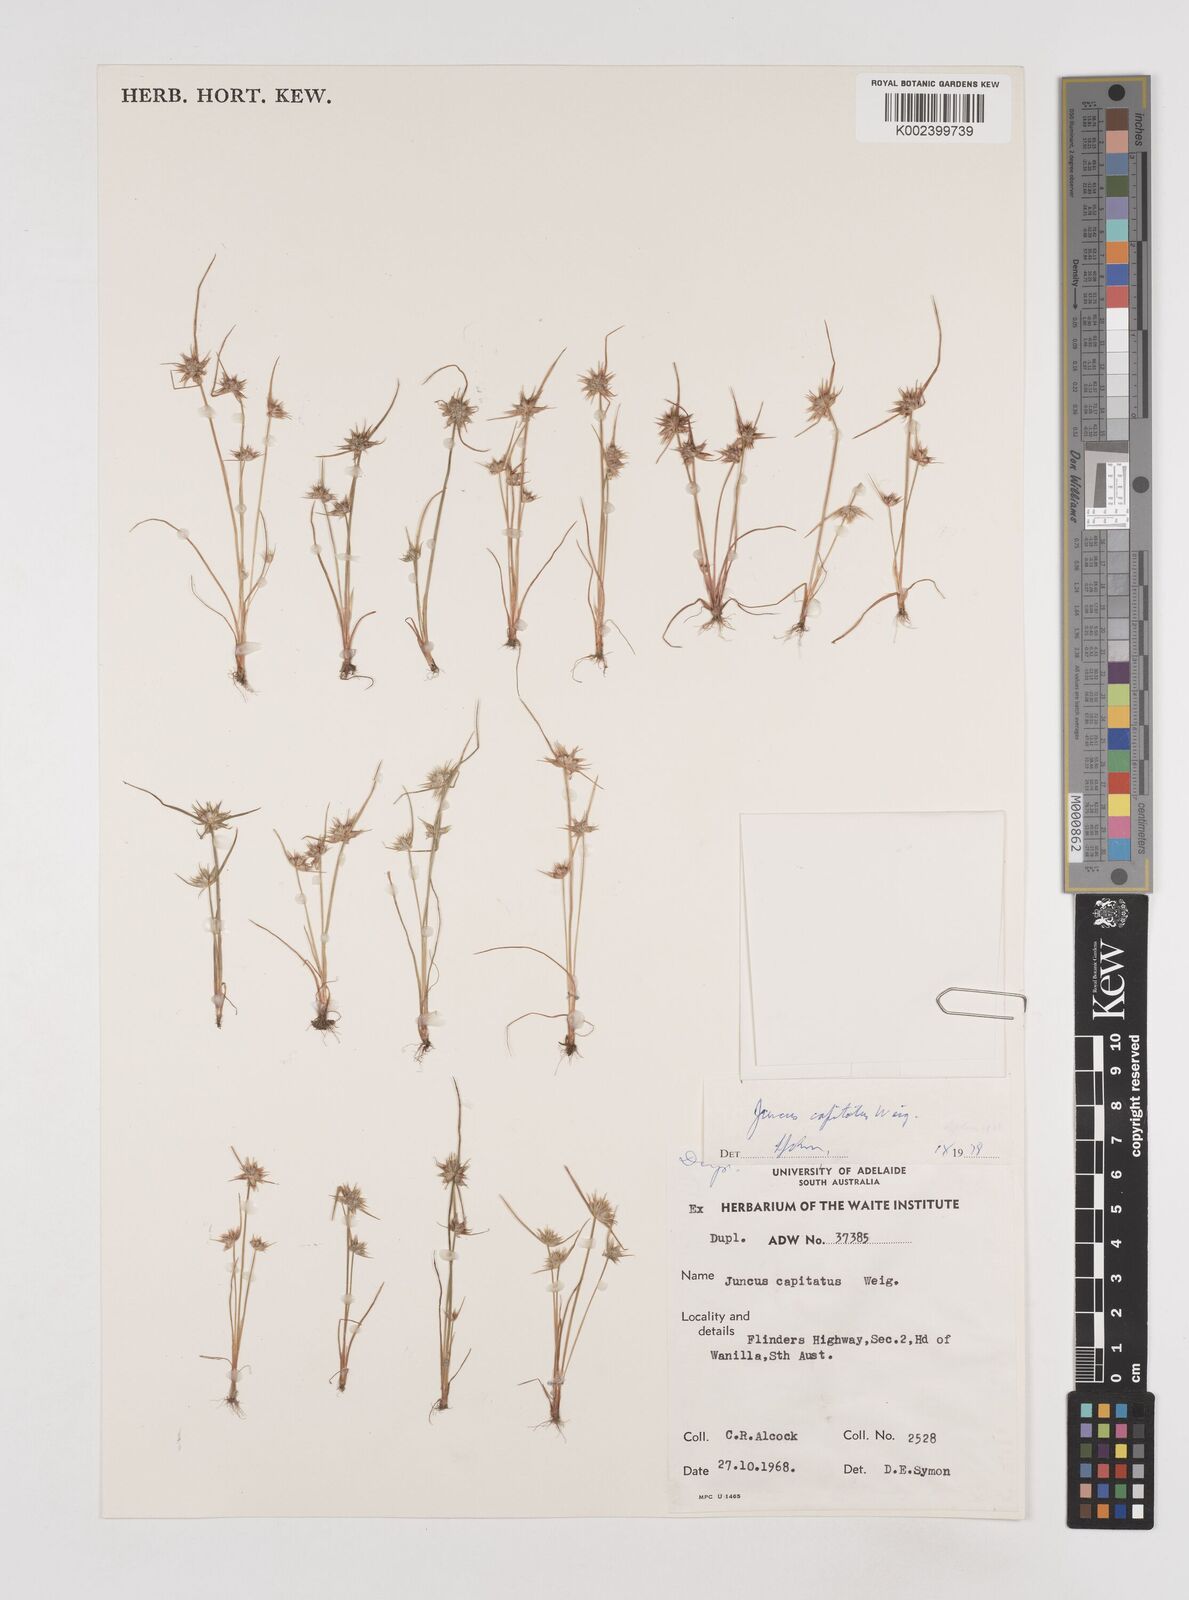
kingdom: Plantae
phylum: Tracheophyta
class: Liliopsida
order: Poales
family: Juncaceae
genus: Juncus
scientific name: Juncus capitatus
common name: Dwarf rush
